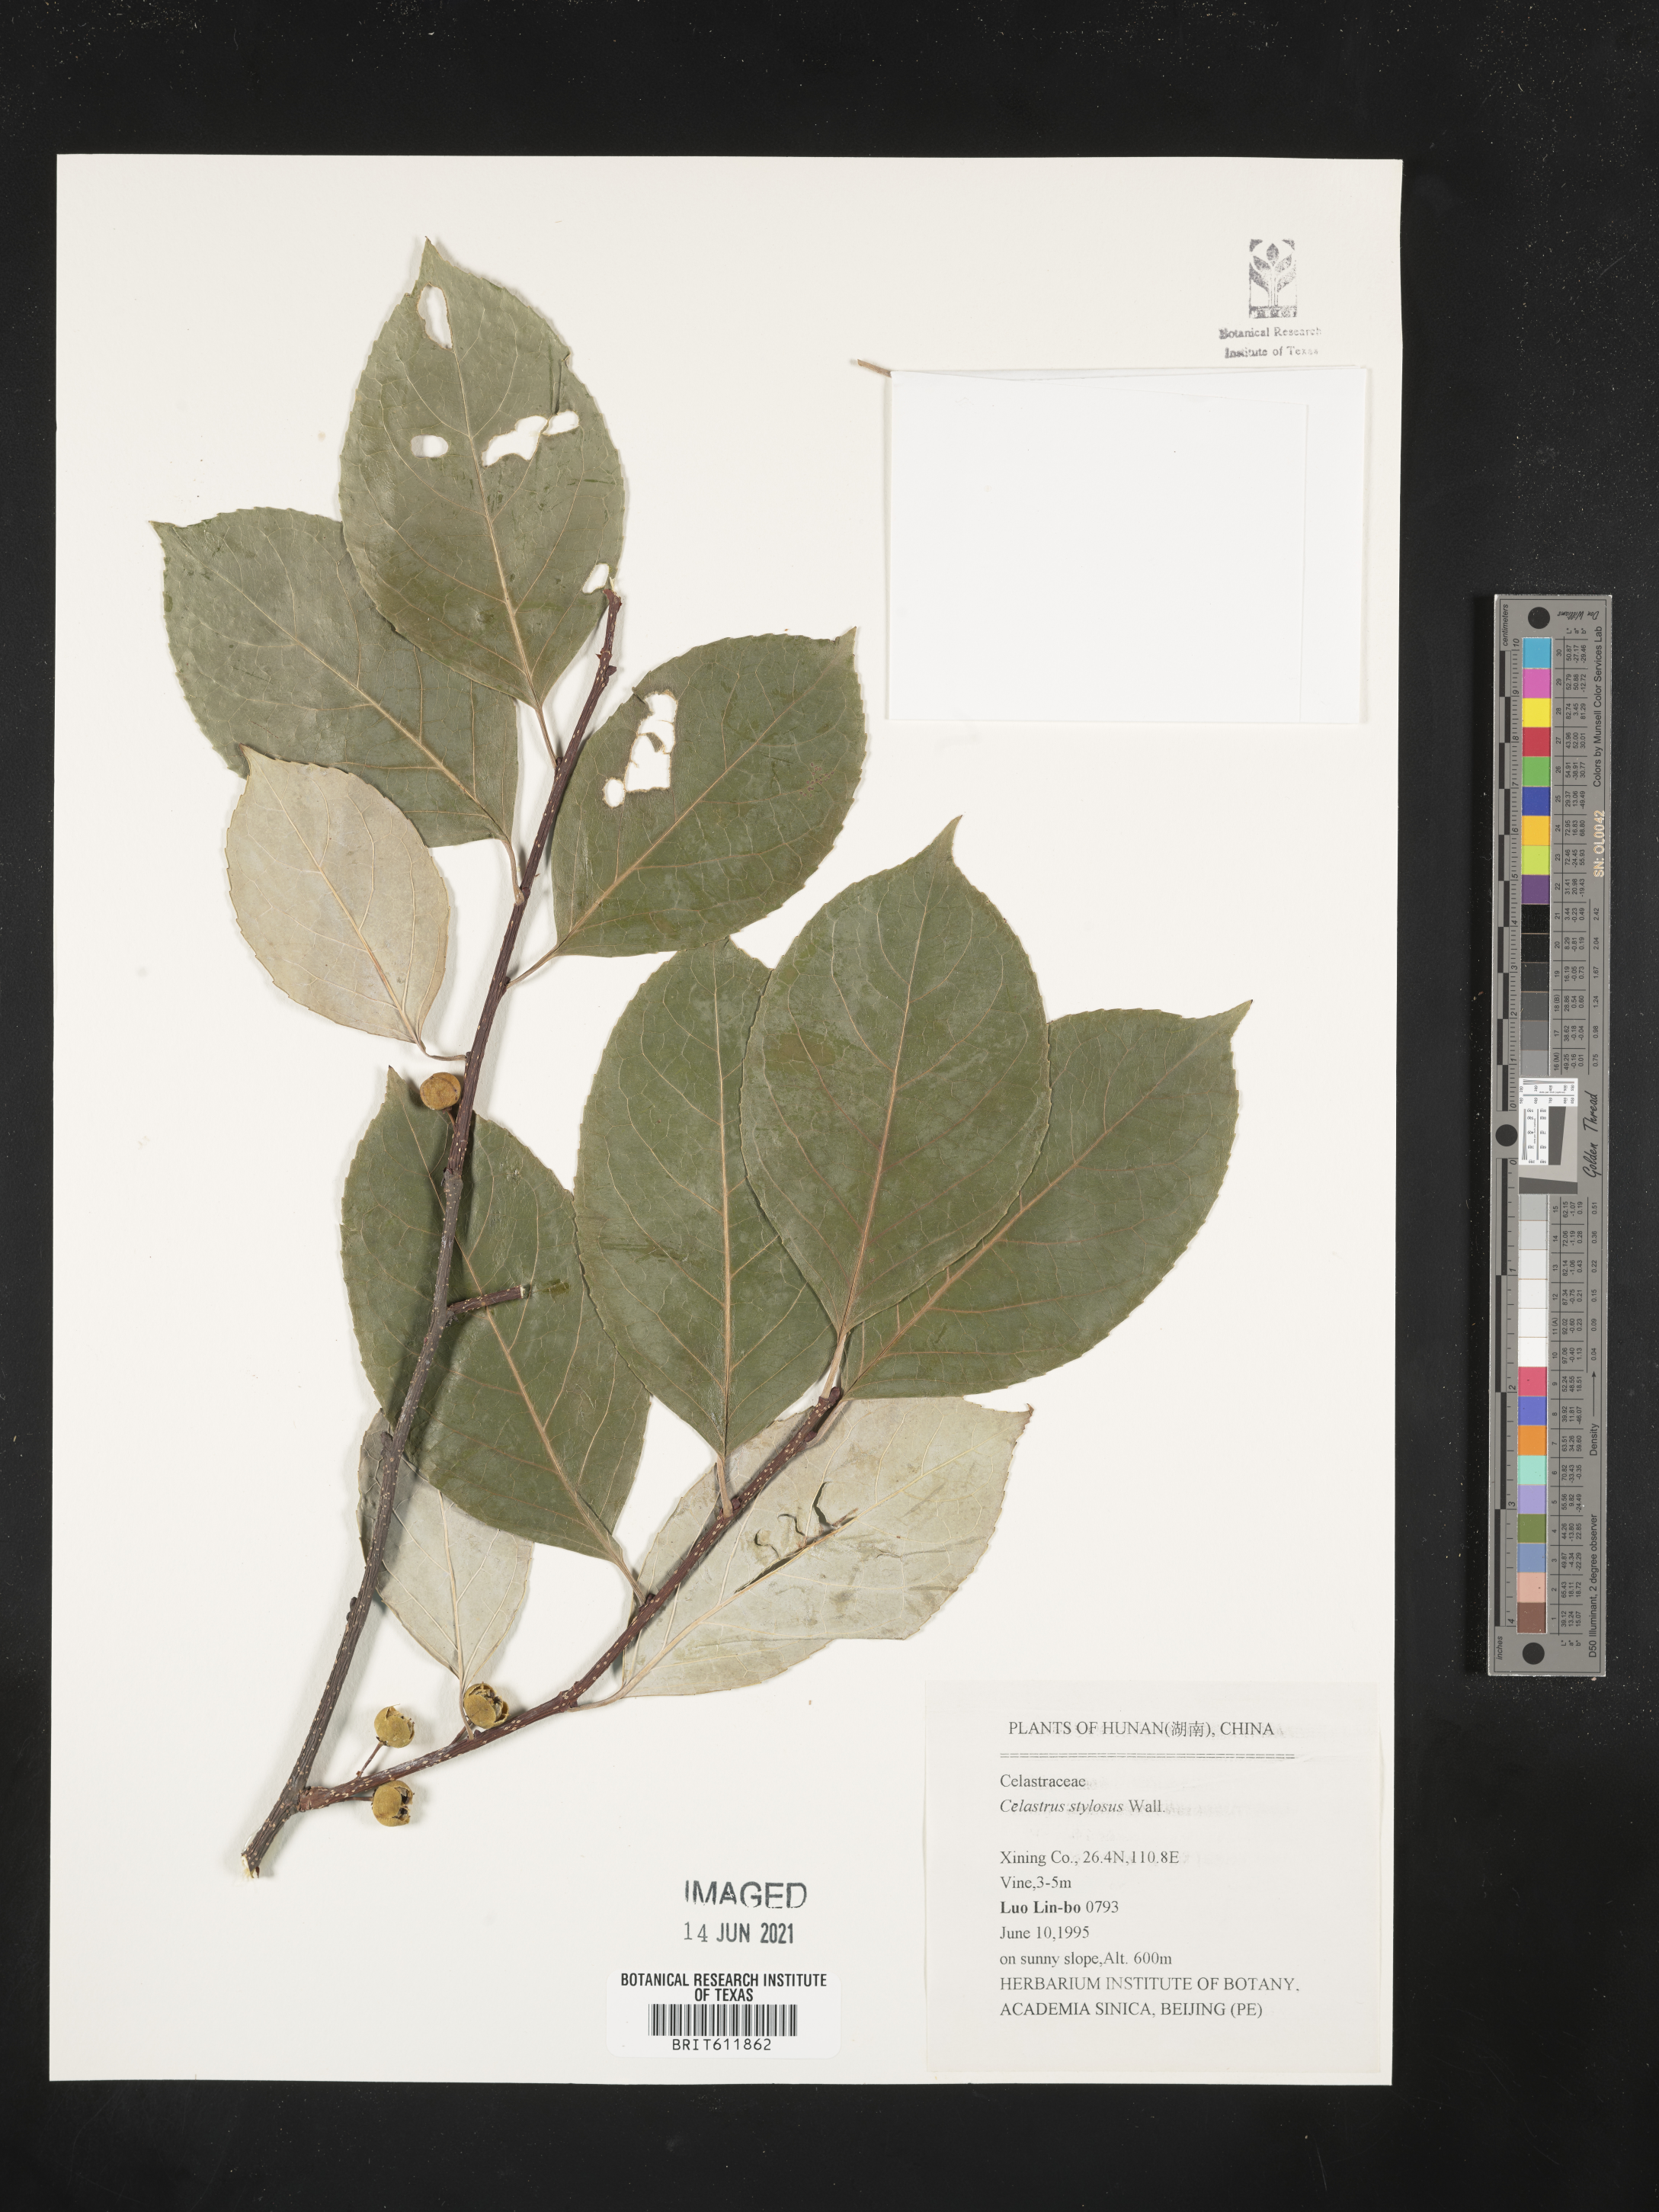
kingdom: Plantae
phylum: Tracheophyta
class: Magnoliopsida
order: Celastrales
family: Celastraceae
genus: Celastrus
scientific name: Celastrus stylosus
